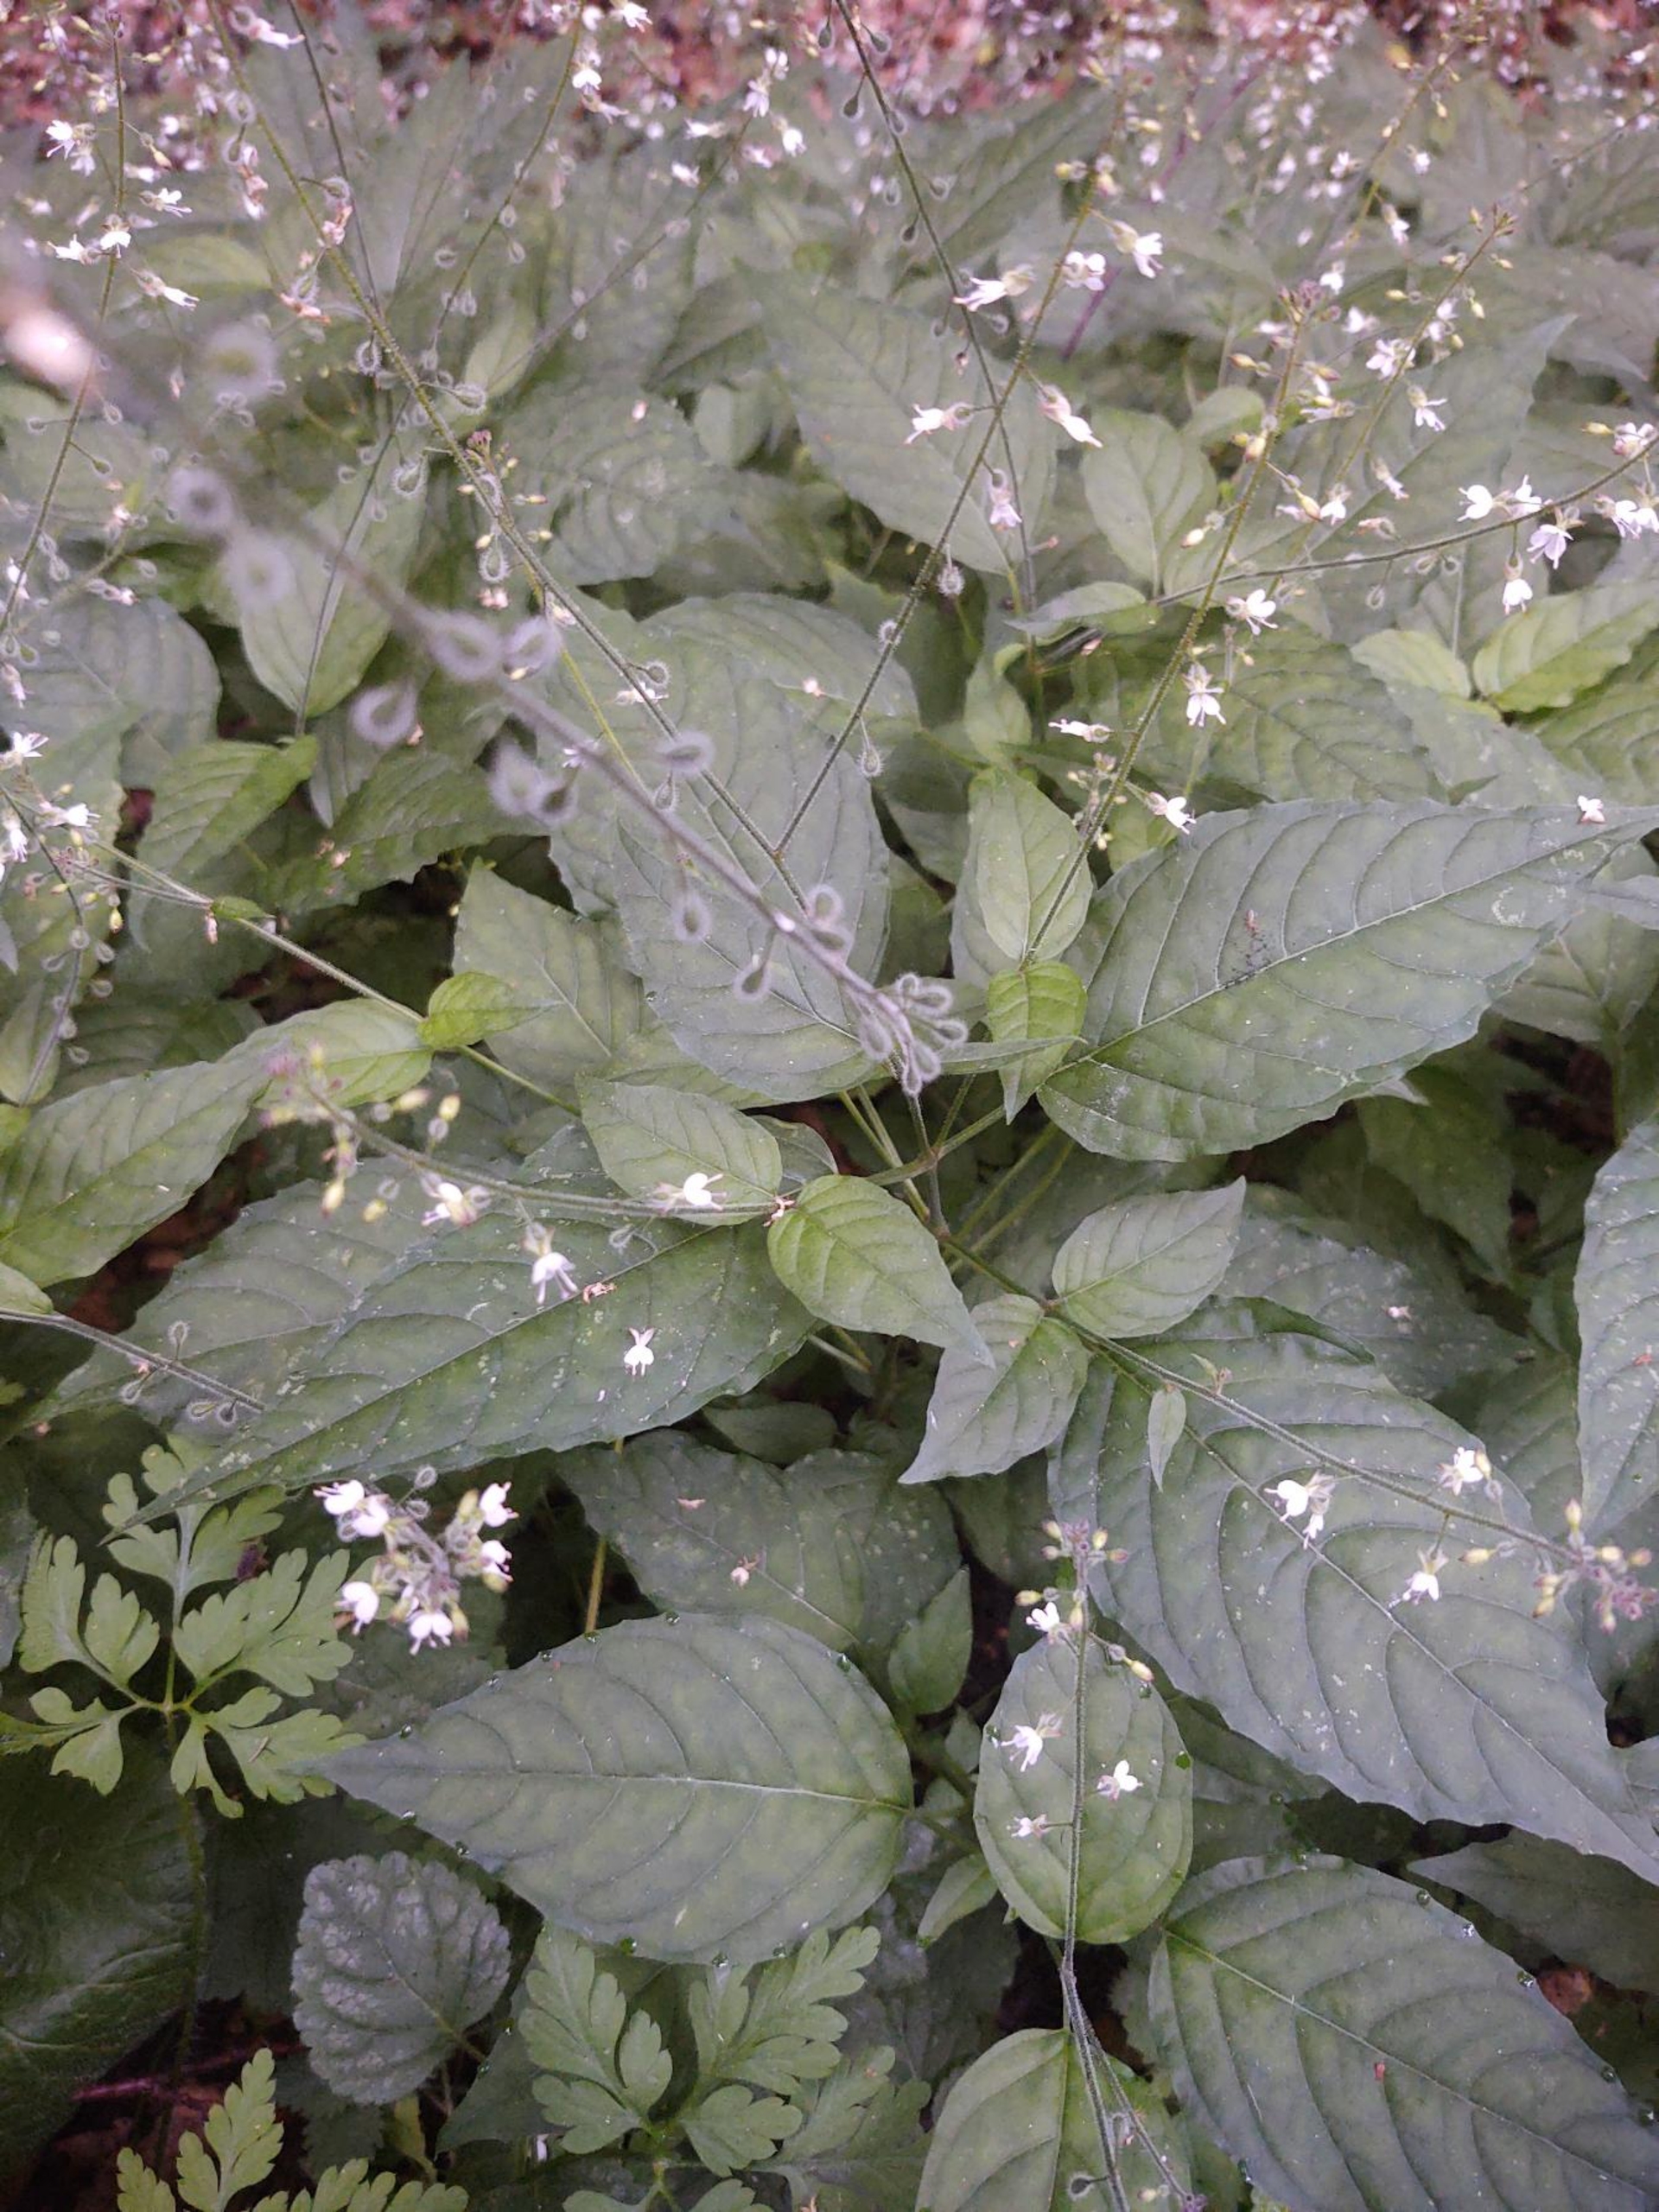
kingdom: Plantae
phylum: Tracheophyta
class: Magnoliopsida
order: Myrtales
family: Onagraceae
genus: Circaea
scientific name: Circaea lutetiana
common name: Dunet steffensurt
